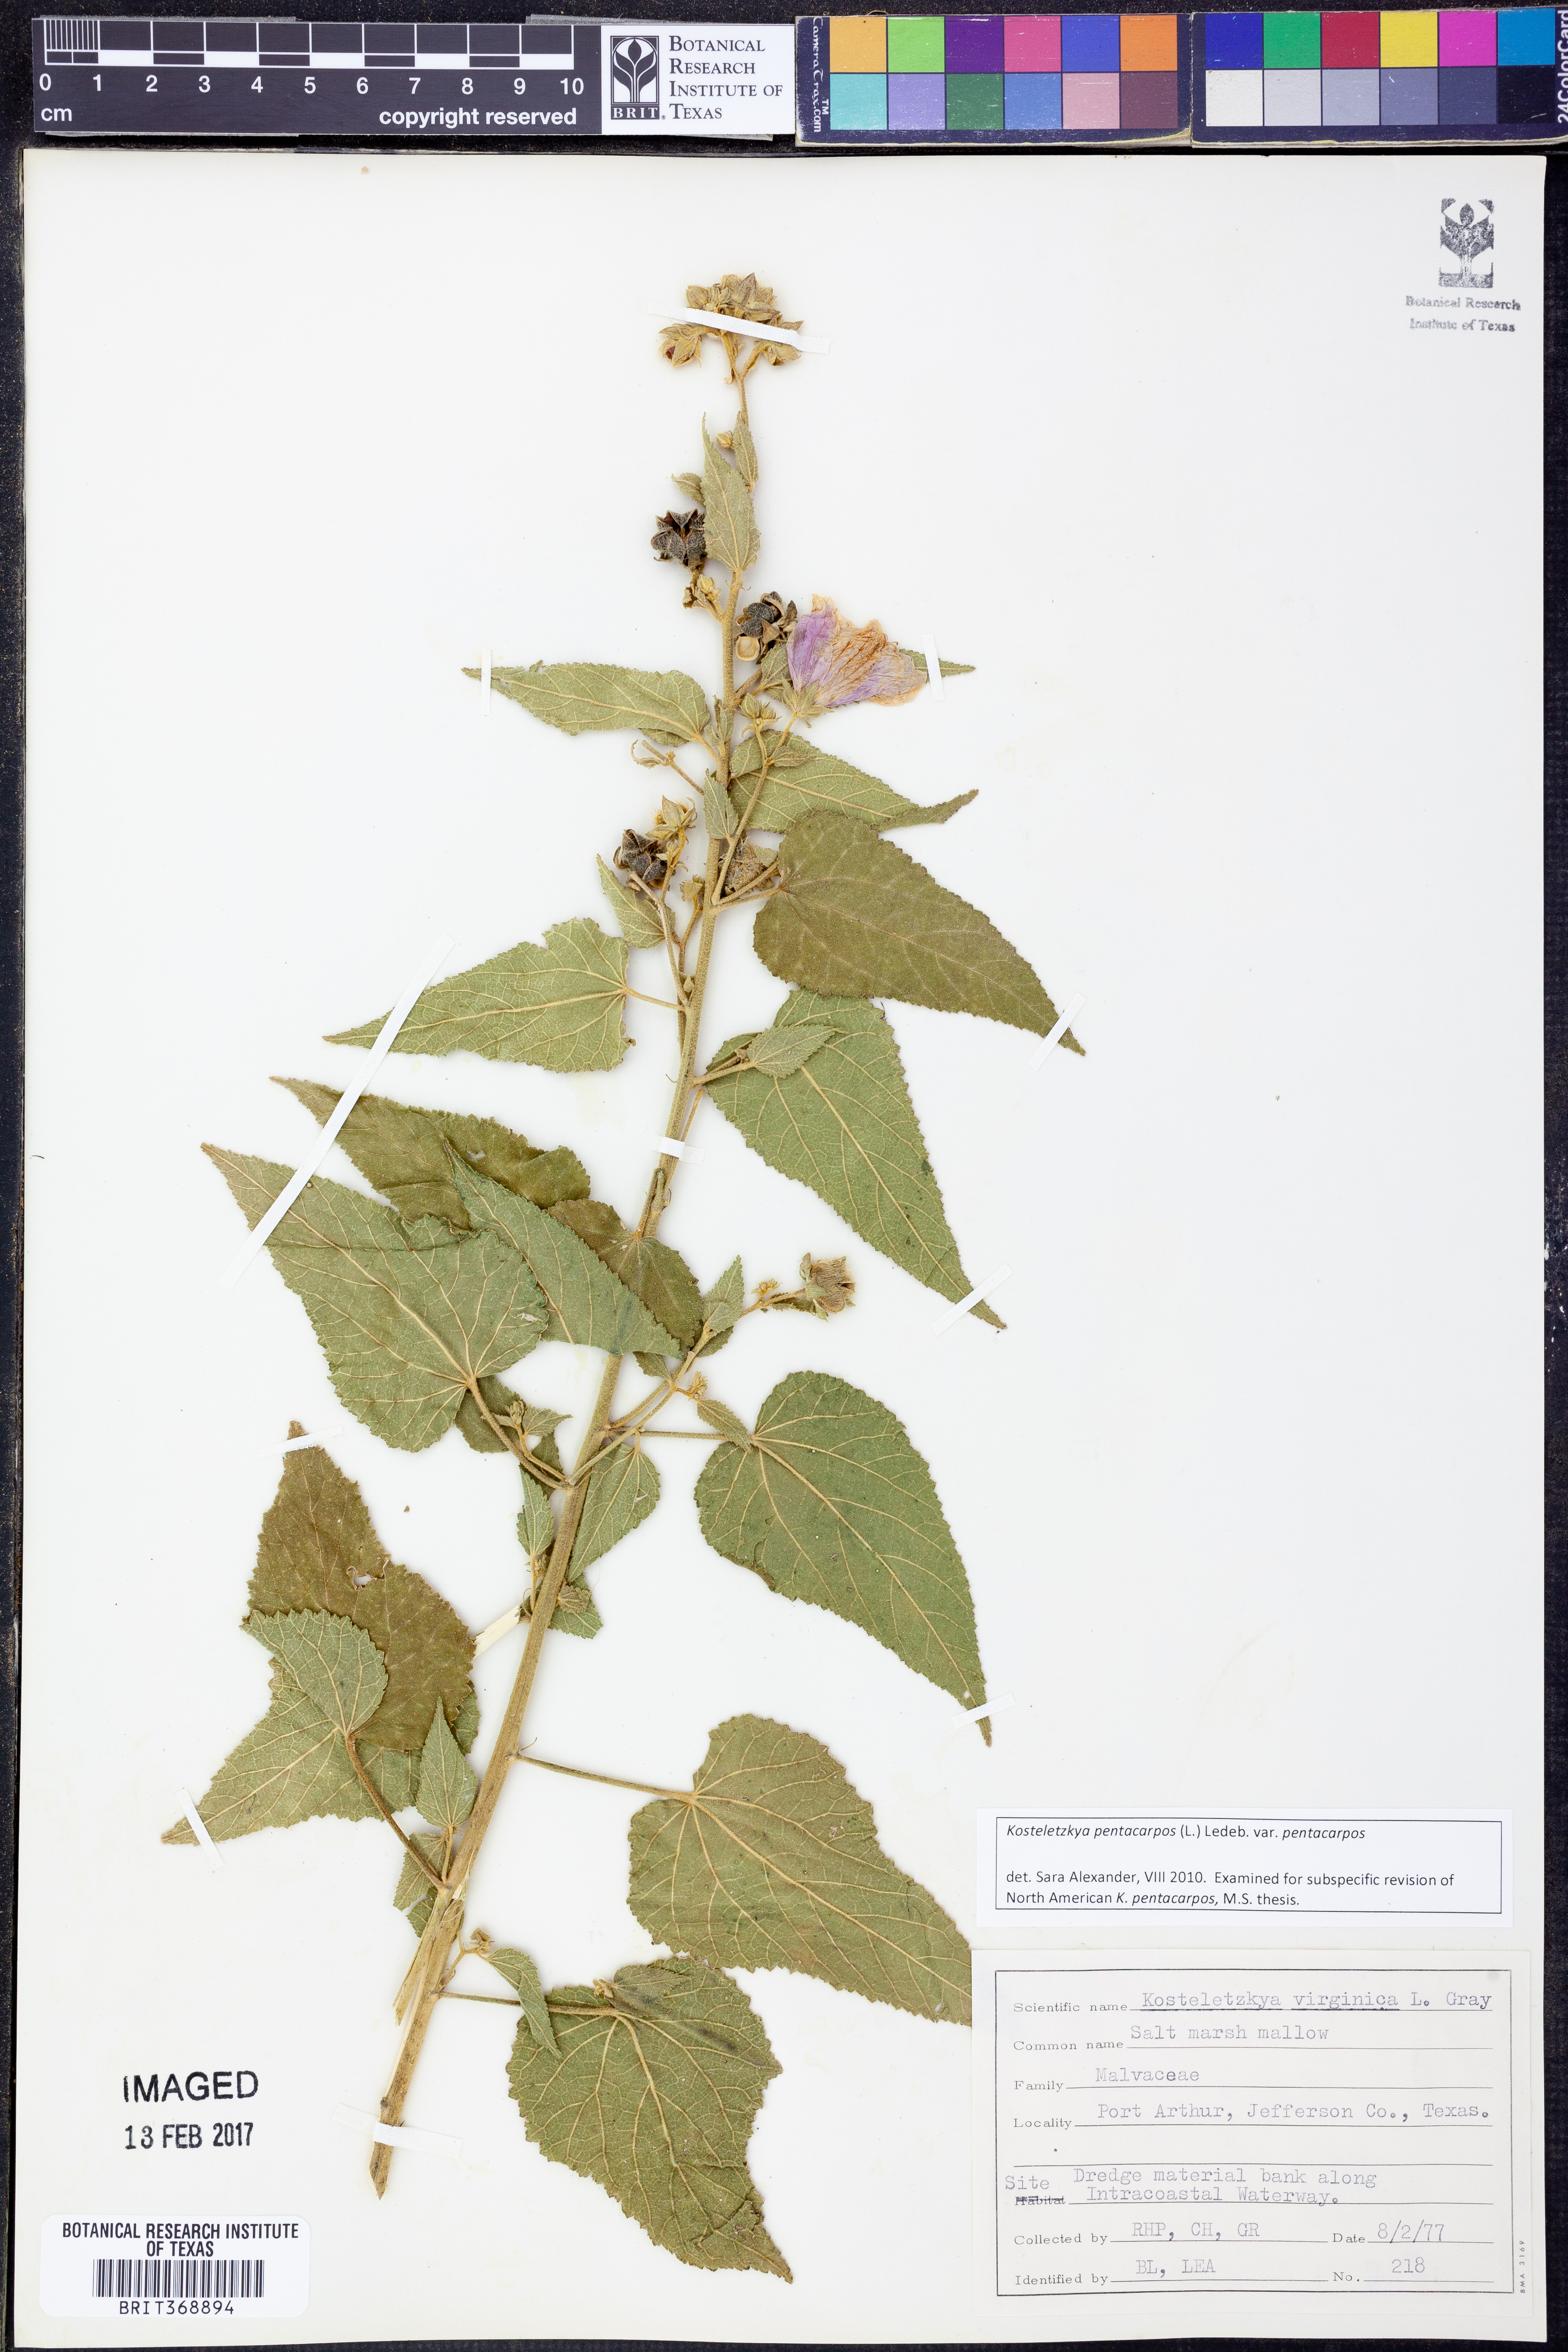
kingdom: Plantae
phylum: Tracheophyta
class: Magnoliopsida
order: Malvales
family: Malvaceae
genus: Kosteletzkya
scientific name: Kosteletzkya pentacarpos
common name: Virginia saltmarsh mallow
